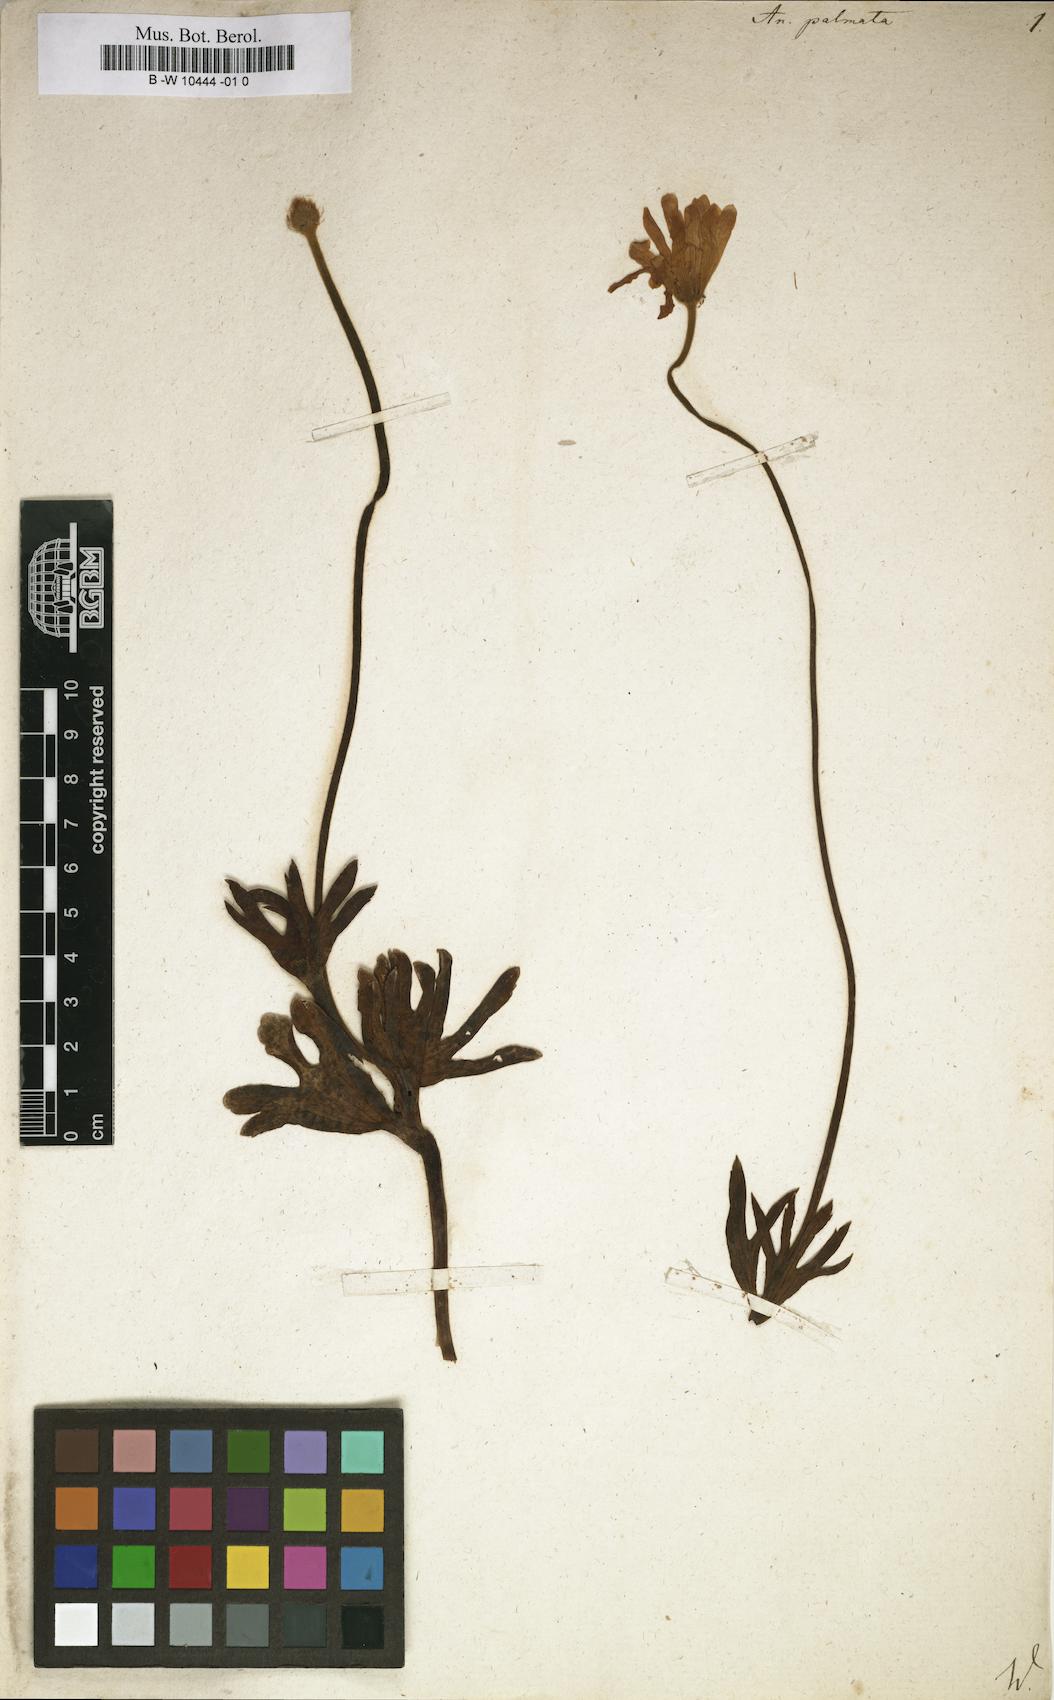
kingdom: Plantae
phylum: Tracheophyta
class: Magnoliopsida
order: Ranunculales
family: Ranunculaceae
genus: Anemone
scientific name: Anemone palmata
